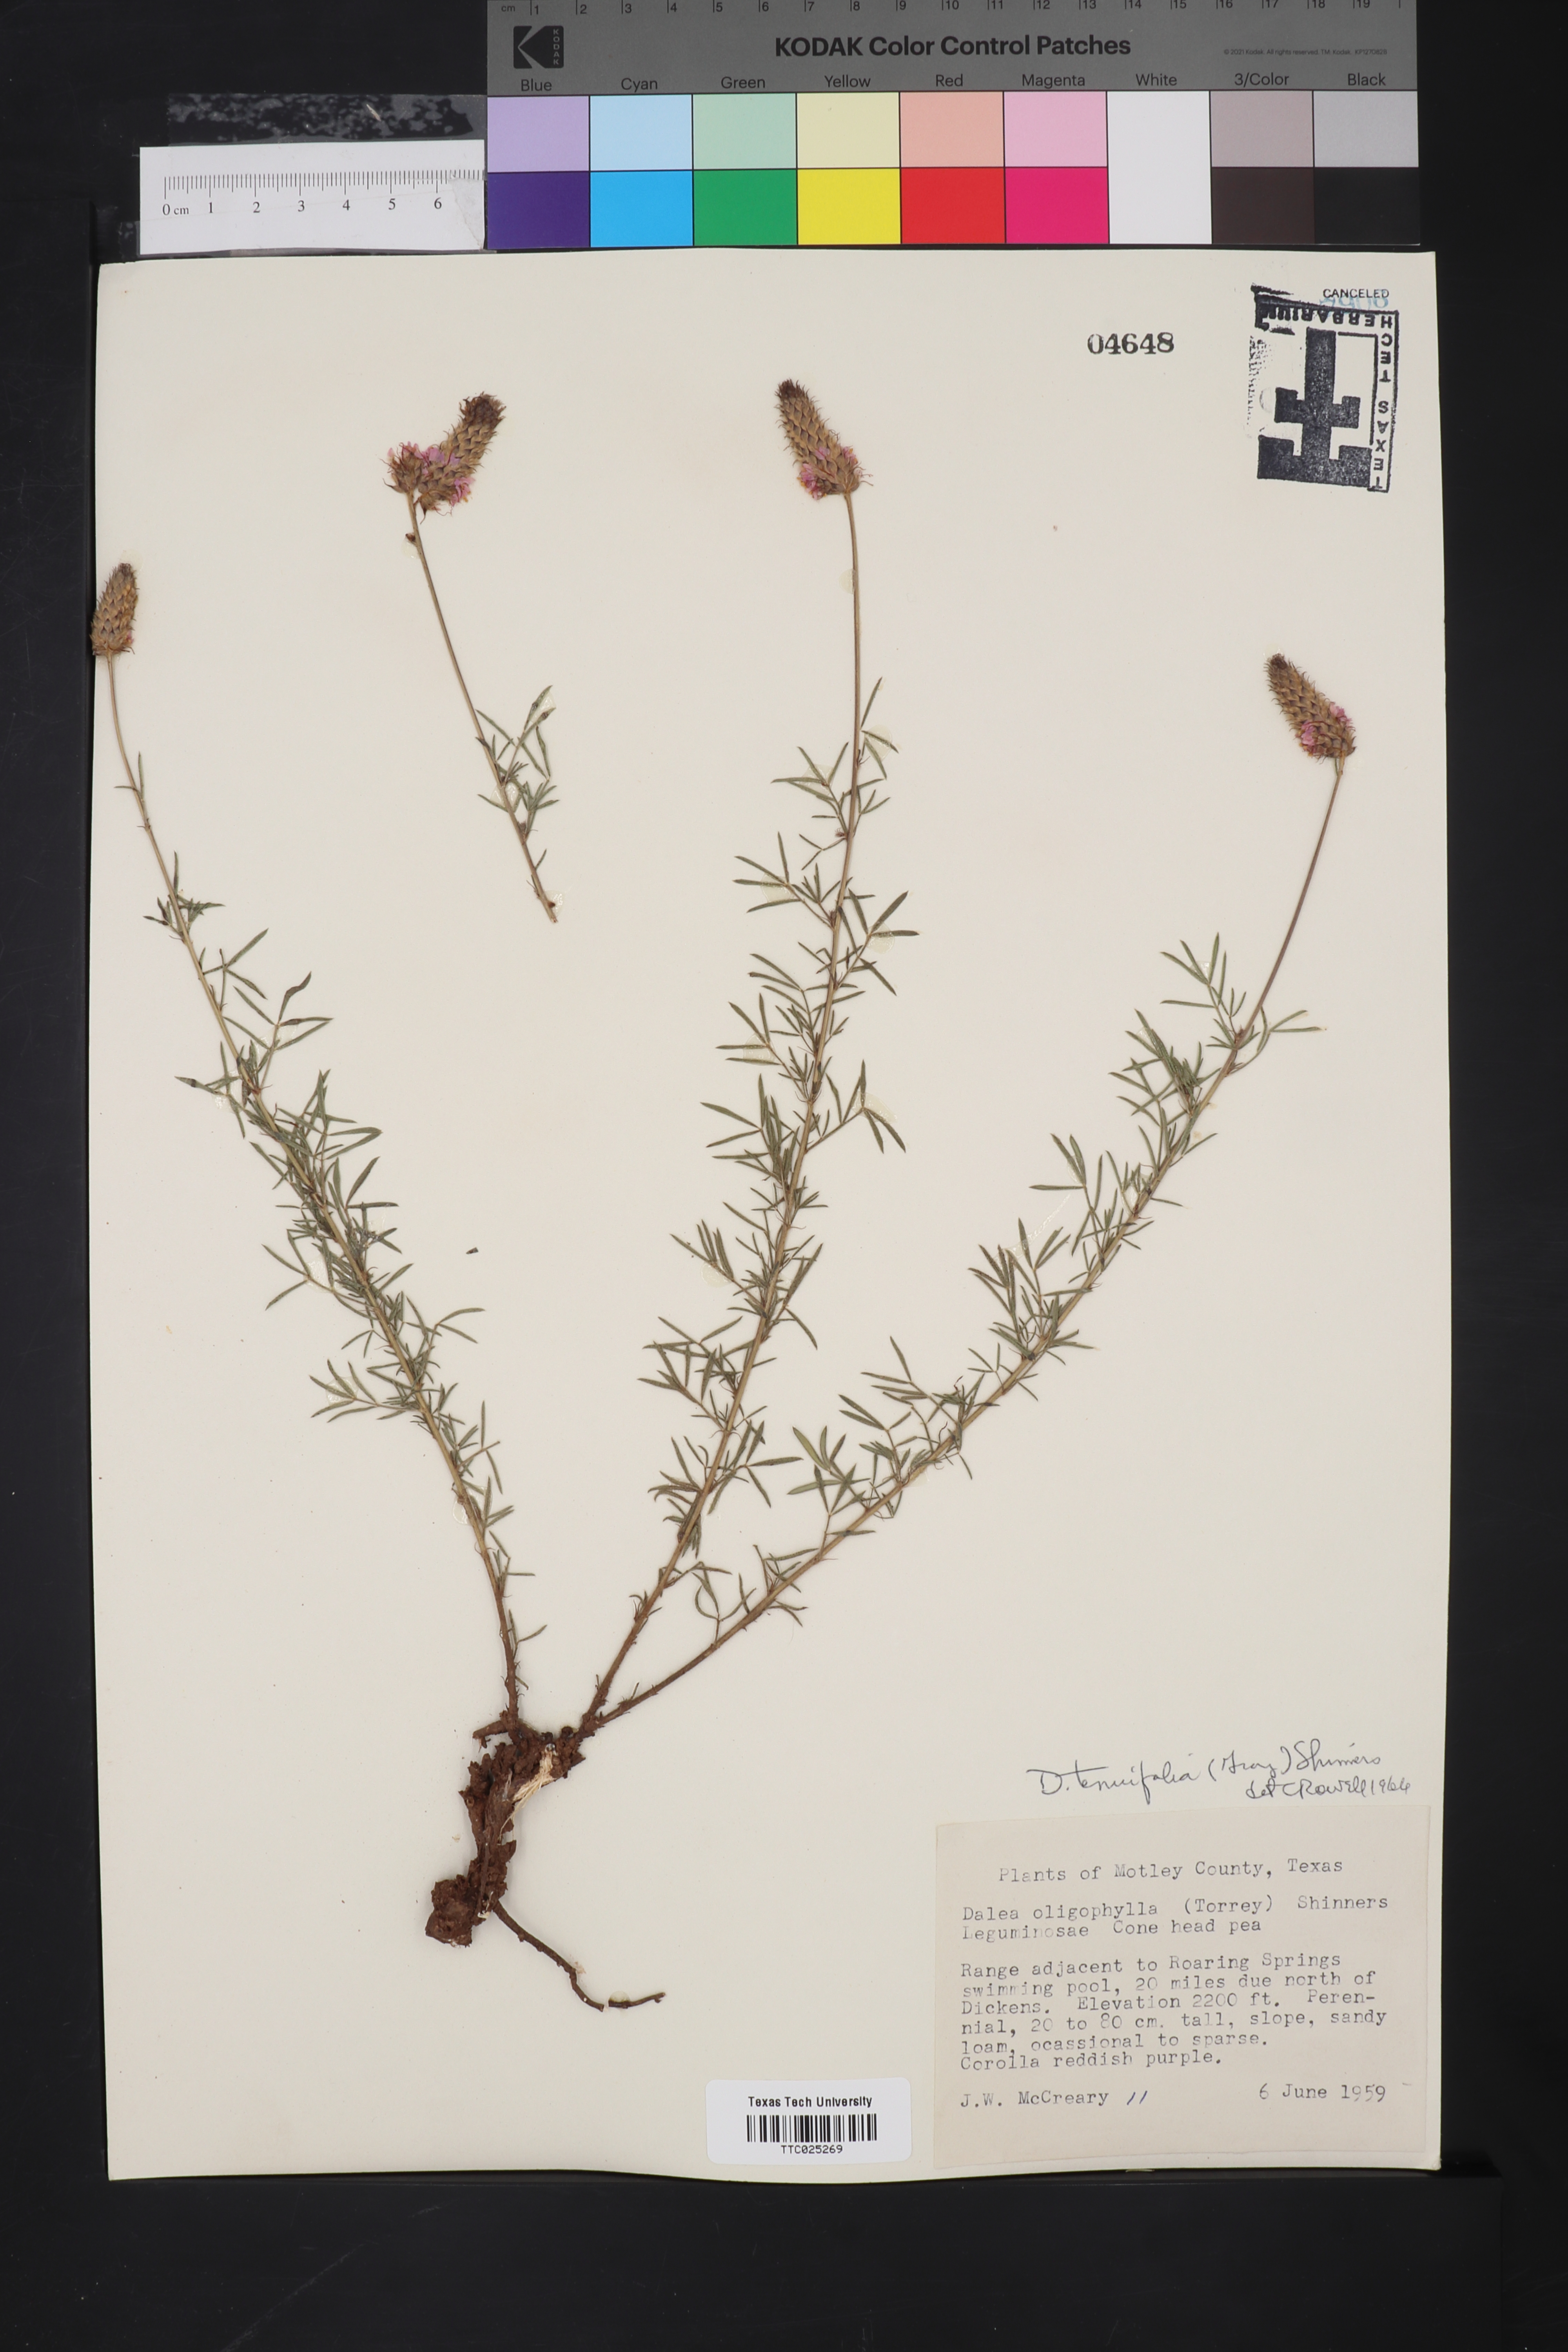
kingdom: Plantae
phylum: Tracheophyta
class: Magnoliopsida
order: Fabales
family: Fabaceae
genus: Dalea
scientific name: Dalea tenuifolia
